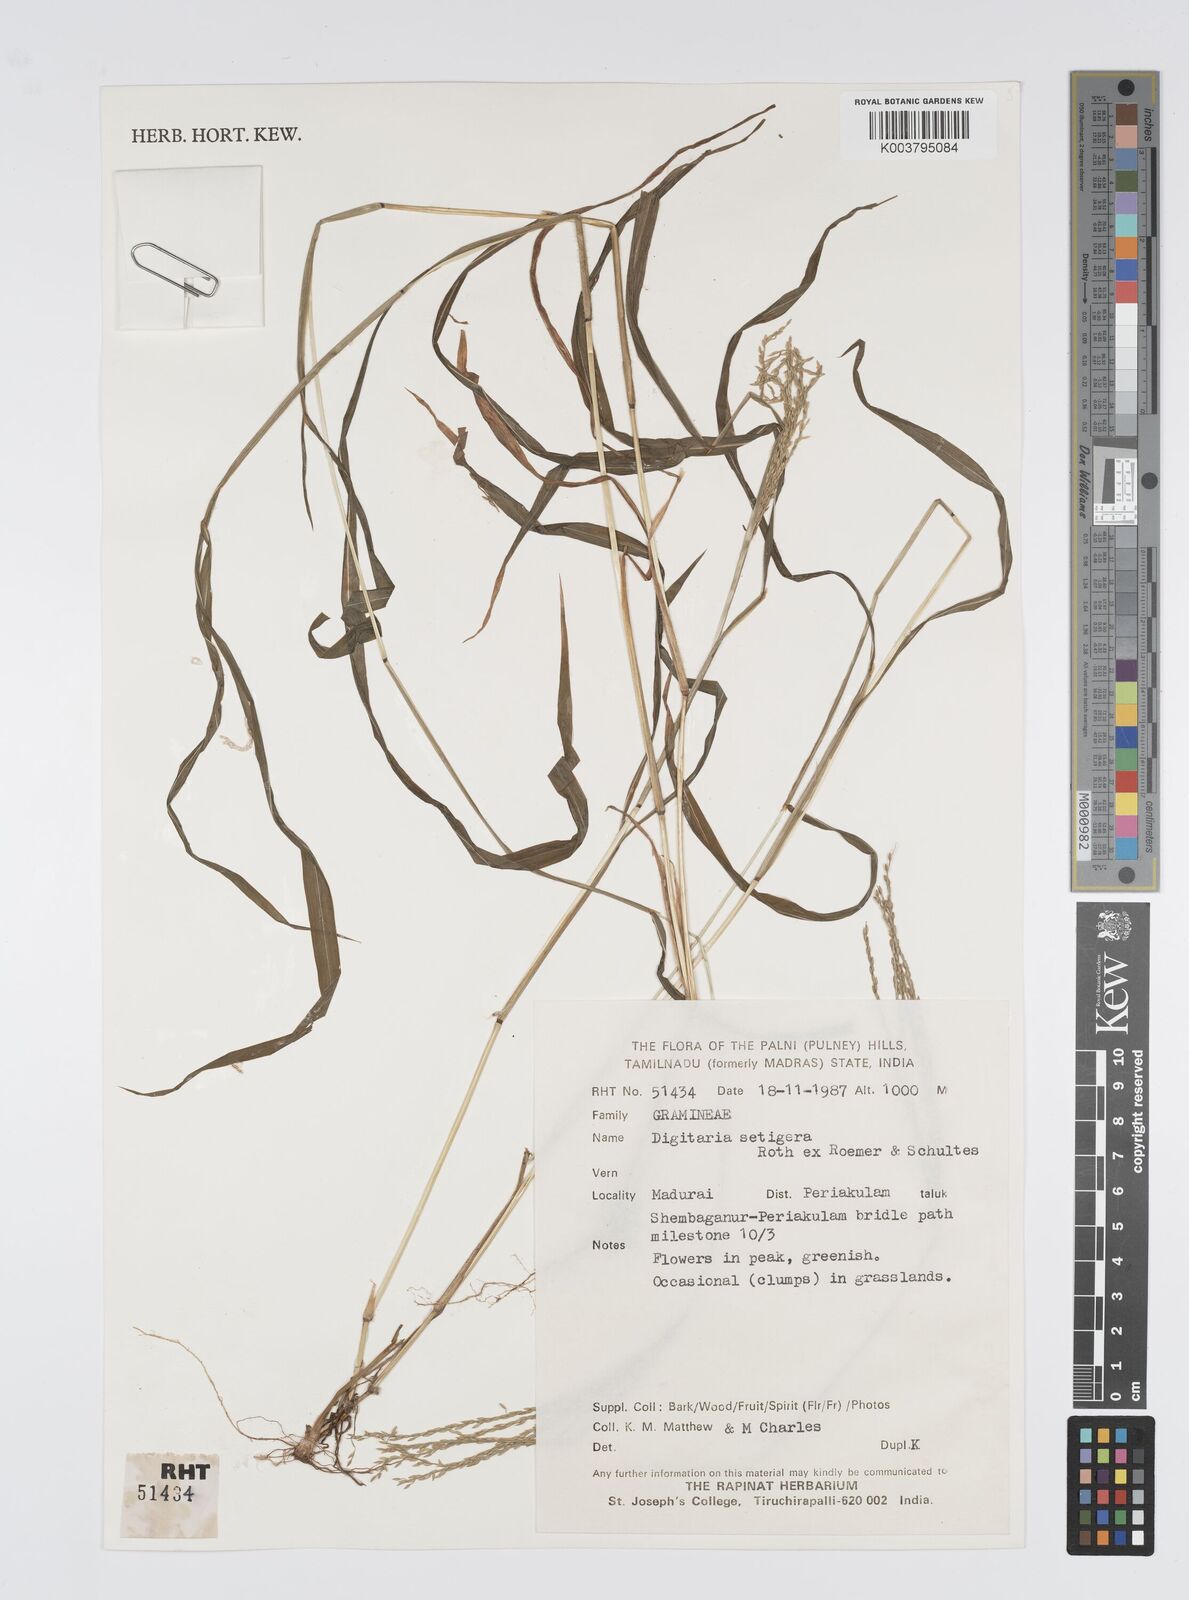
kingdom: Plantae
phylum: Tracheophyta
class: Liliopsida
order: Poales
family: Poaceae
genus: Digitaria
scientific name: Digitaria setigera
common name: East indian crabgrass
